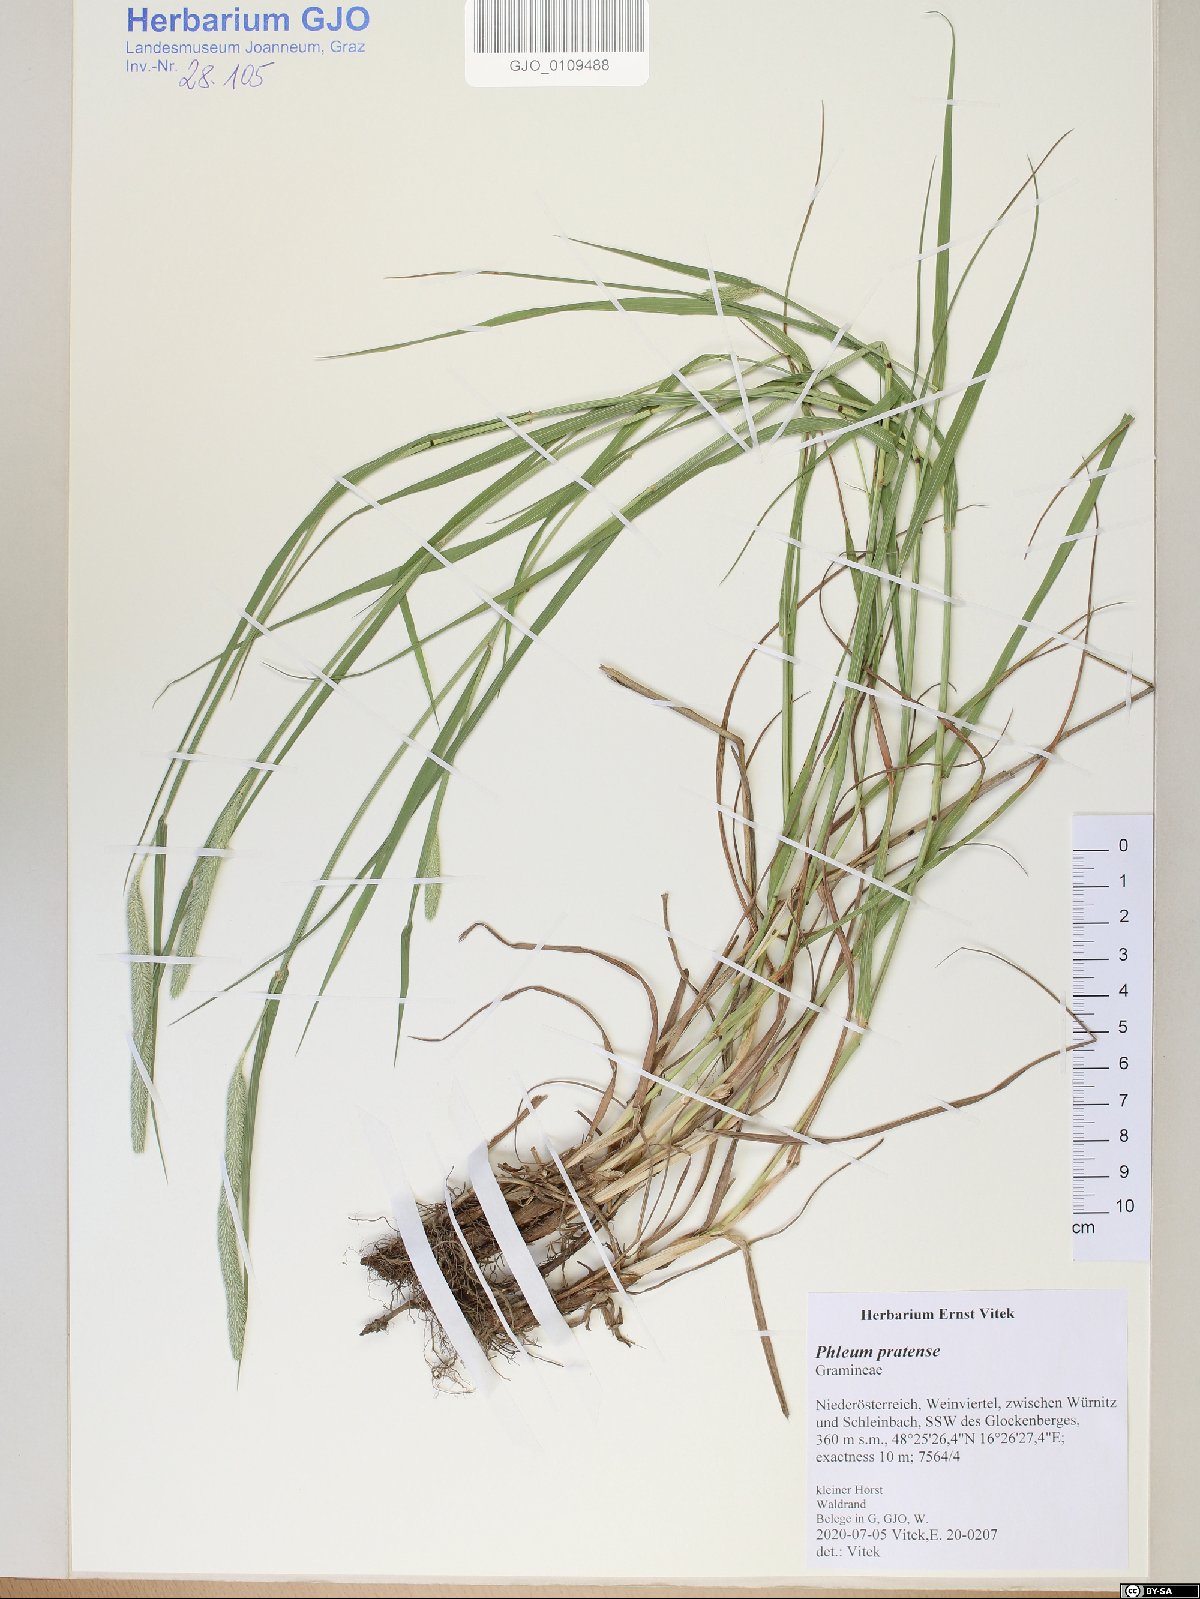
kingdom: Plantae
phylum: Tracheophyta
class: Liliopsida
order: Poales
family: Poaceae
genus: Phleum
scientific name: Phleum pratense
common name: Timothy grass
